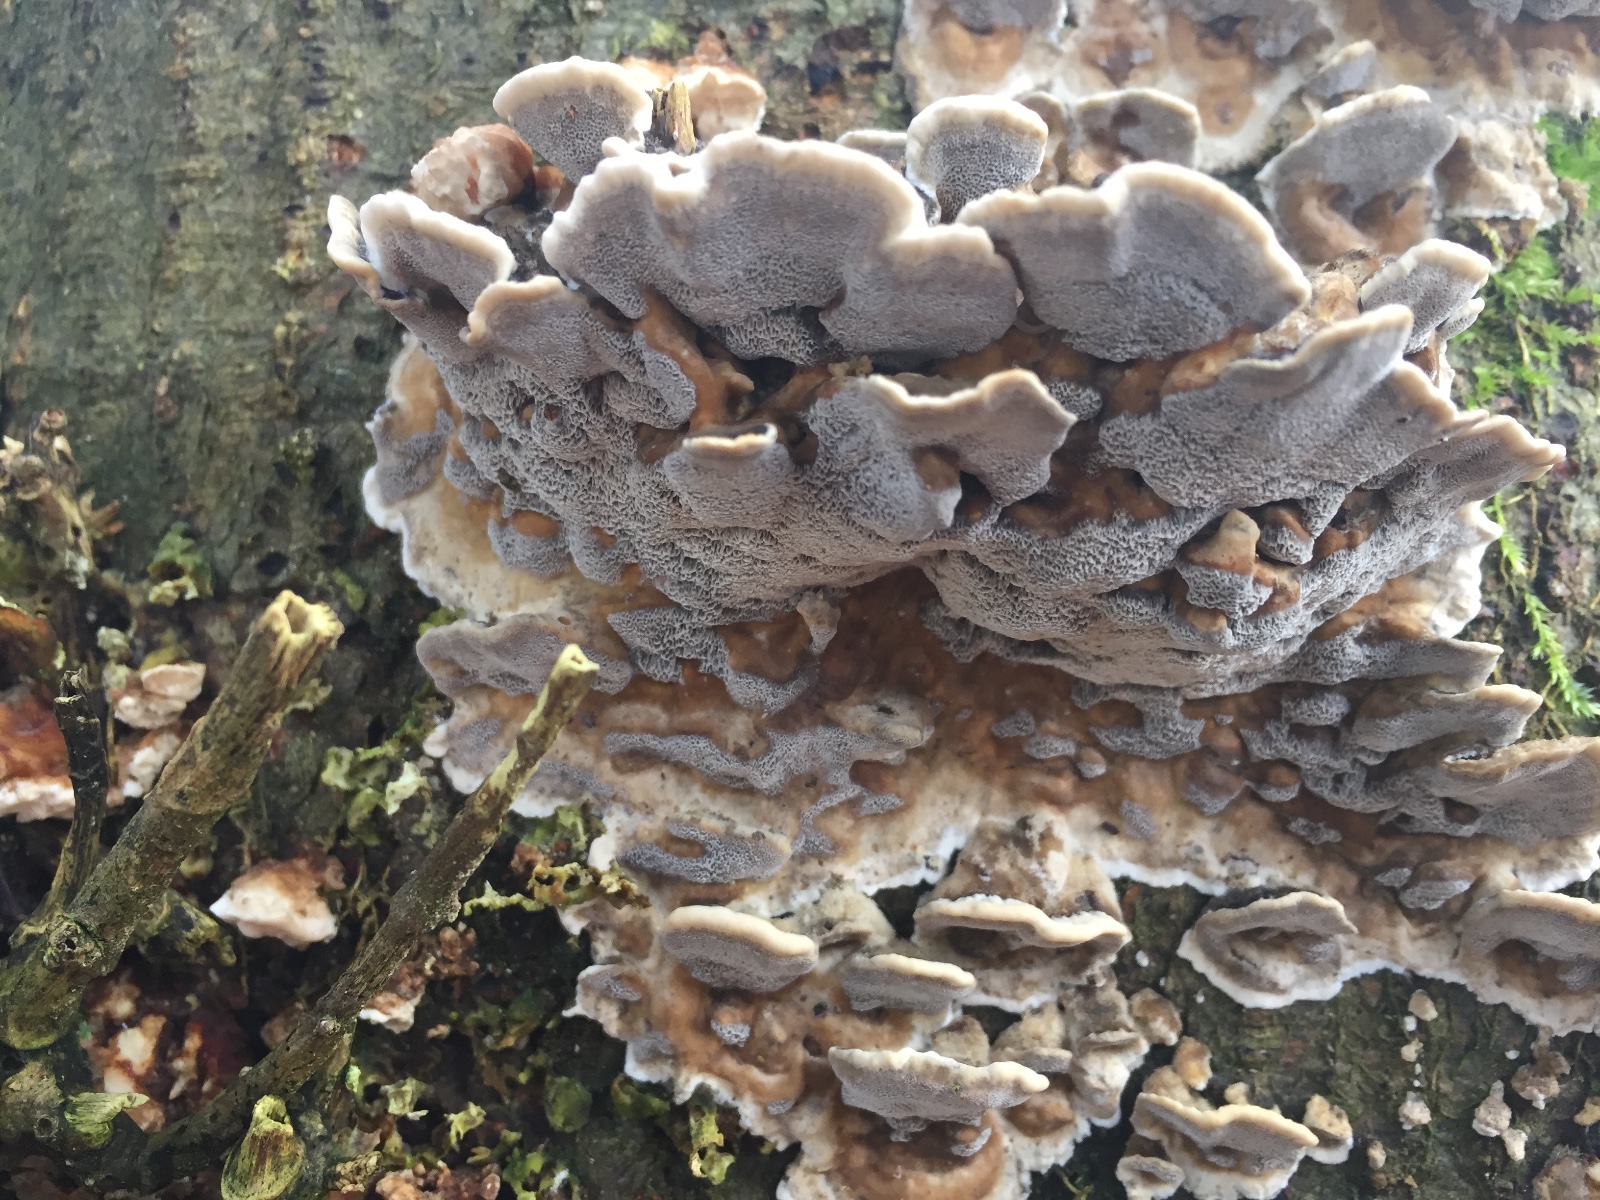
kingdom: Fungi
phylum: Basidiomycota
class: Agaricomycetes
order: Polyporales
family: Phanerochaetaceae
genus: Bjerkandera
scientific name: Bjerkandera adusta
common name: sveden sodporesvamp
